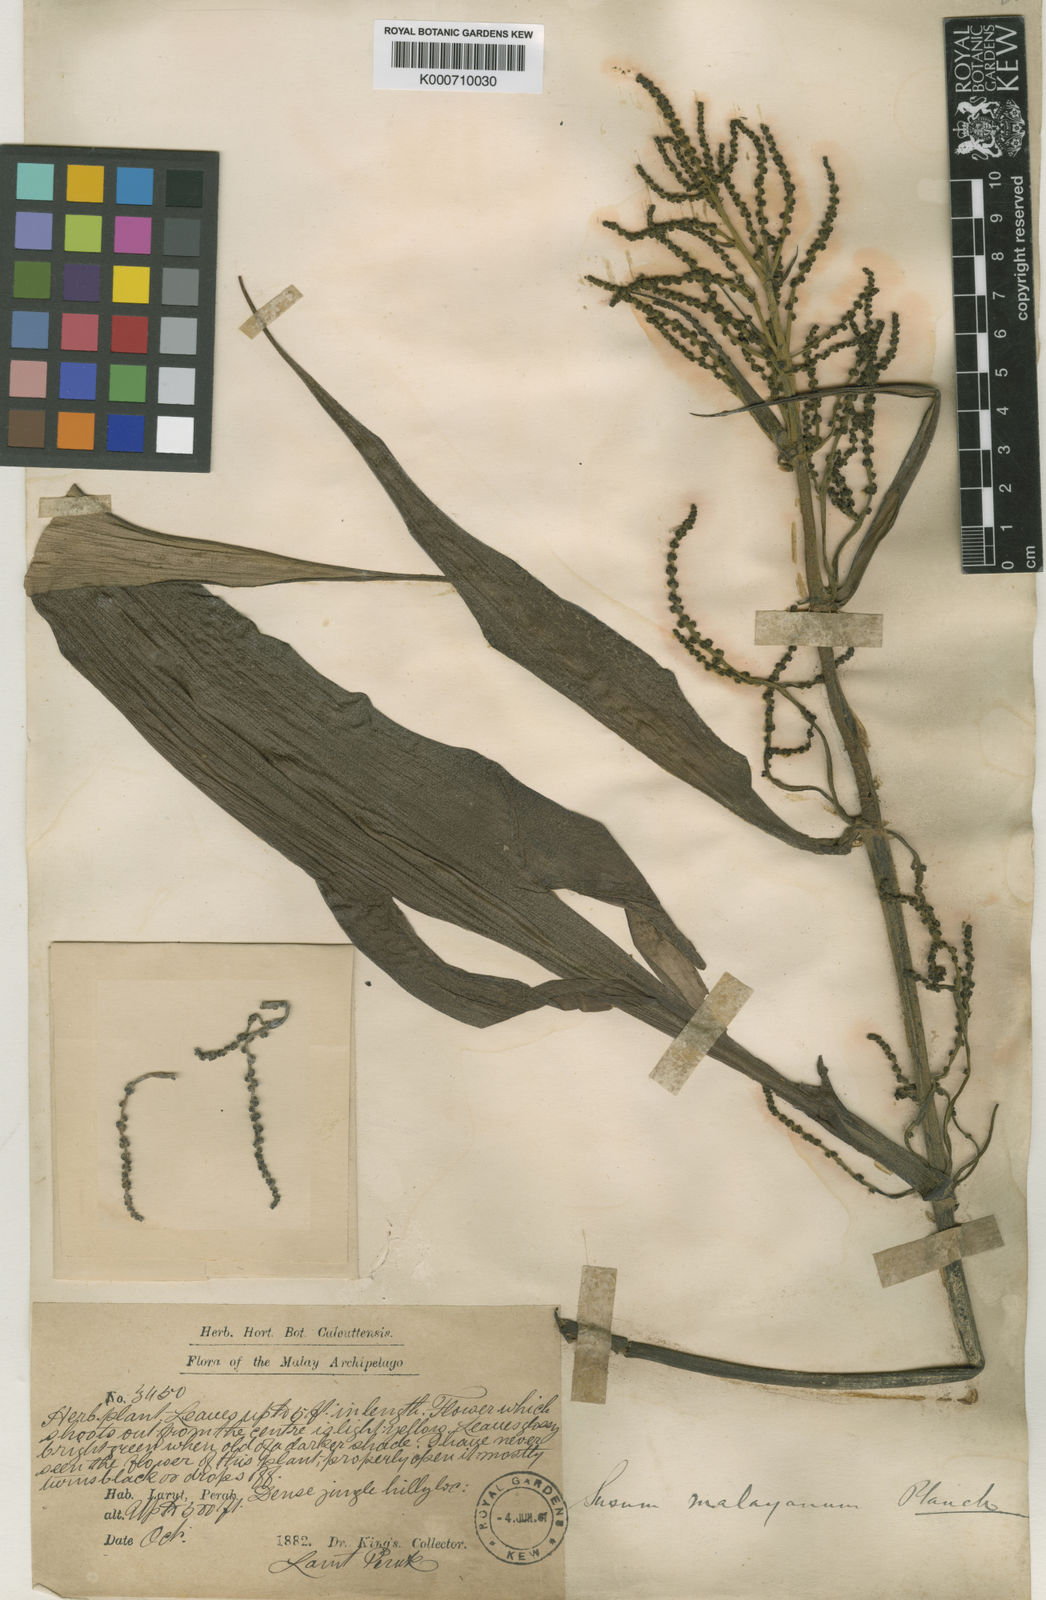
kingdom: Plantae
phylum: Tracheophyta
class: Liliopsida
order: Commelinales
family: Hanguanaceae
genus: Hanguana
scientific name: Hanguana malayana
